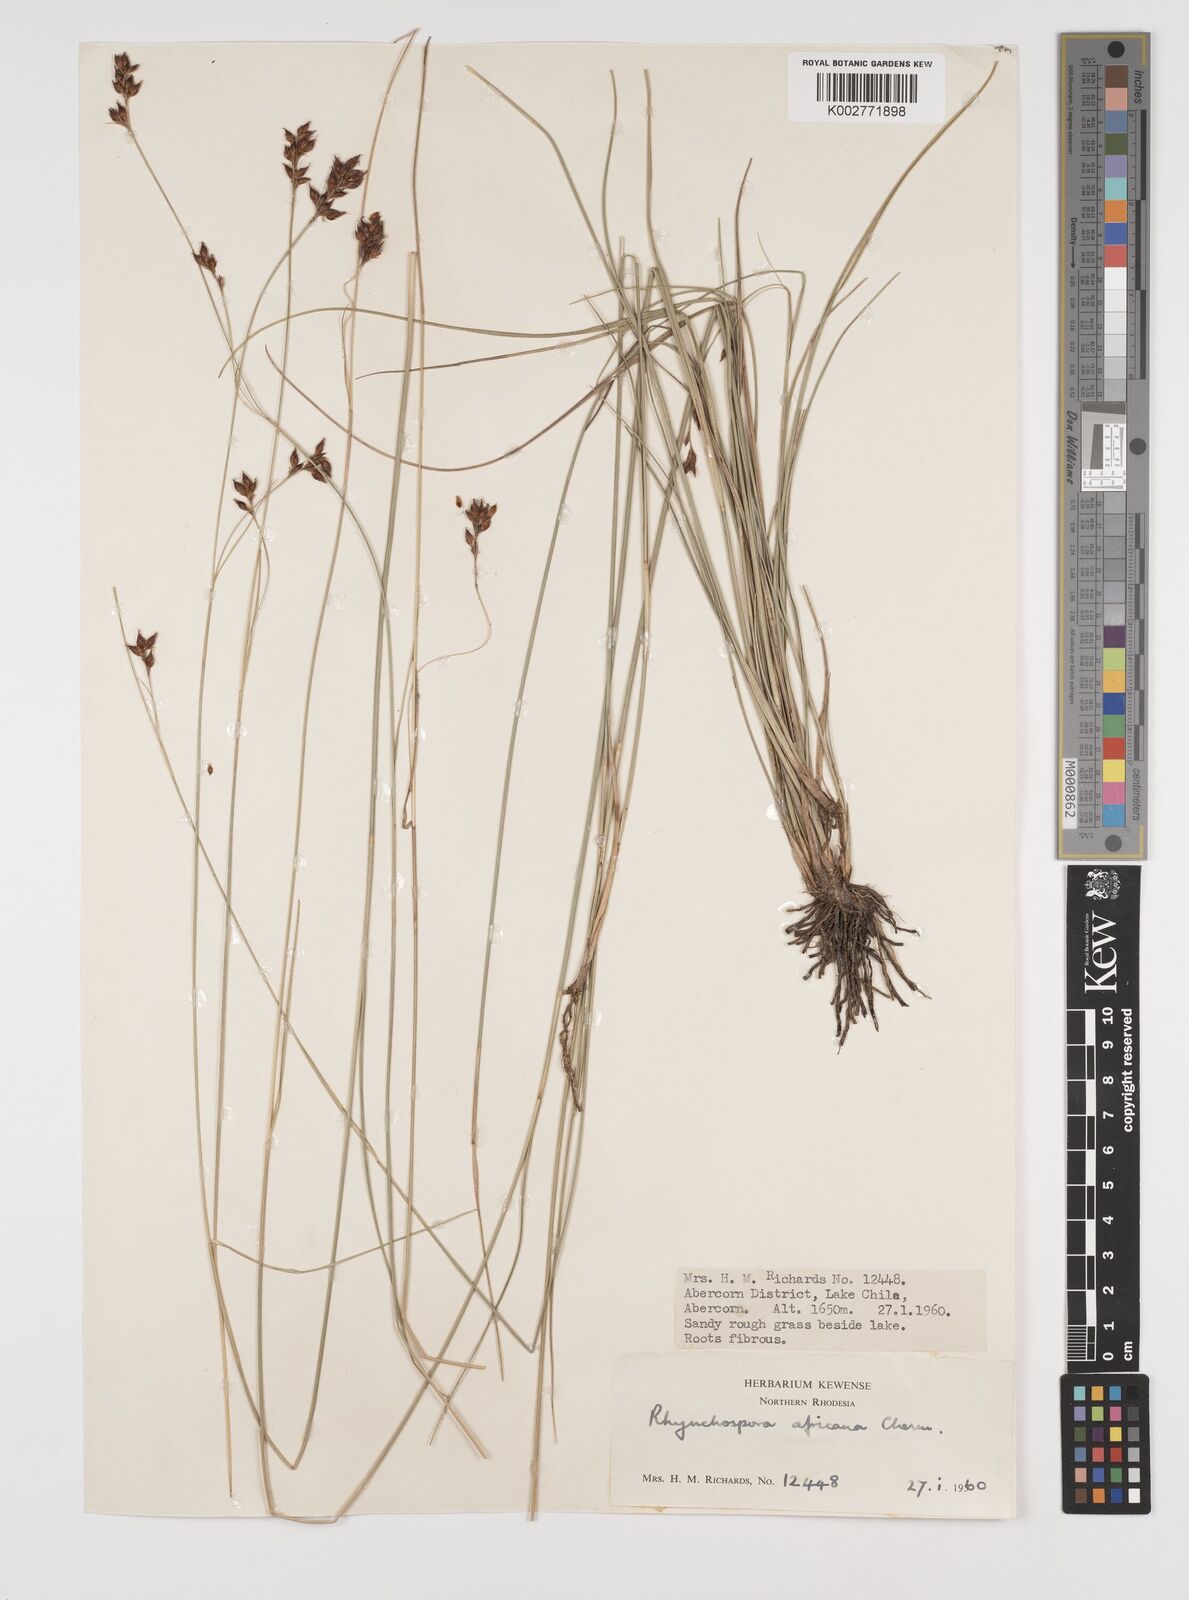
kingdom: Plantae
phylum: Tracheophyta
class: Liliopsida
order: Poales
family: Cyperaceae
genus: Rhynchospora
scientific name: Rhynchospora angolensis
